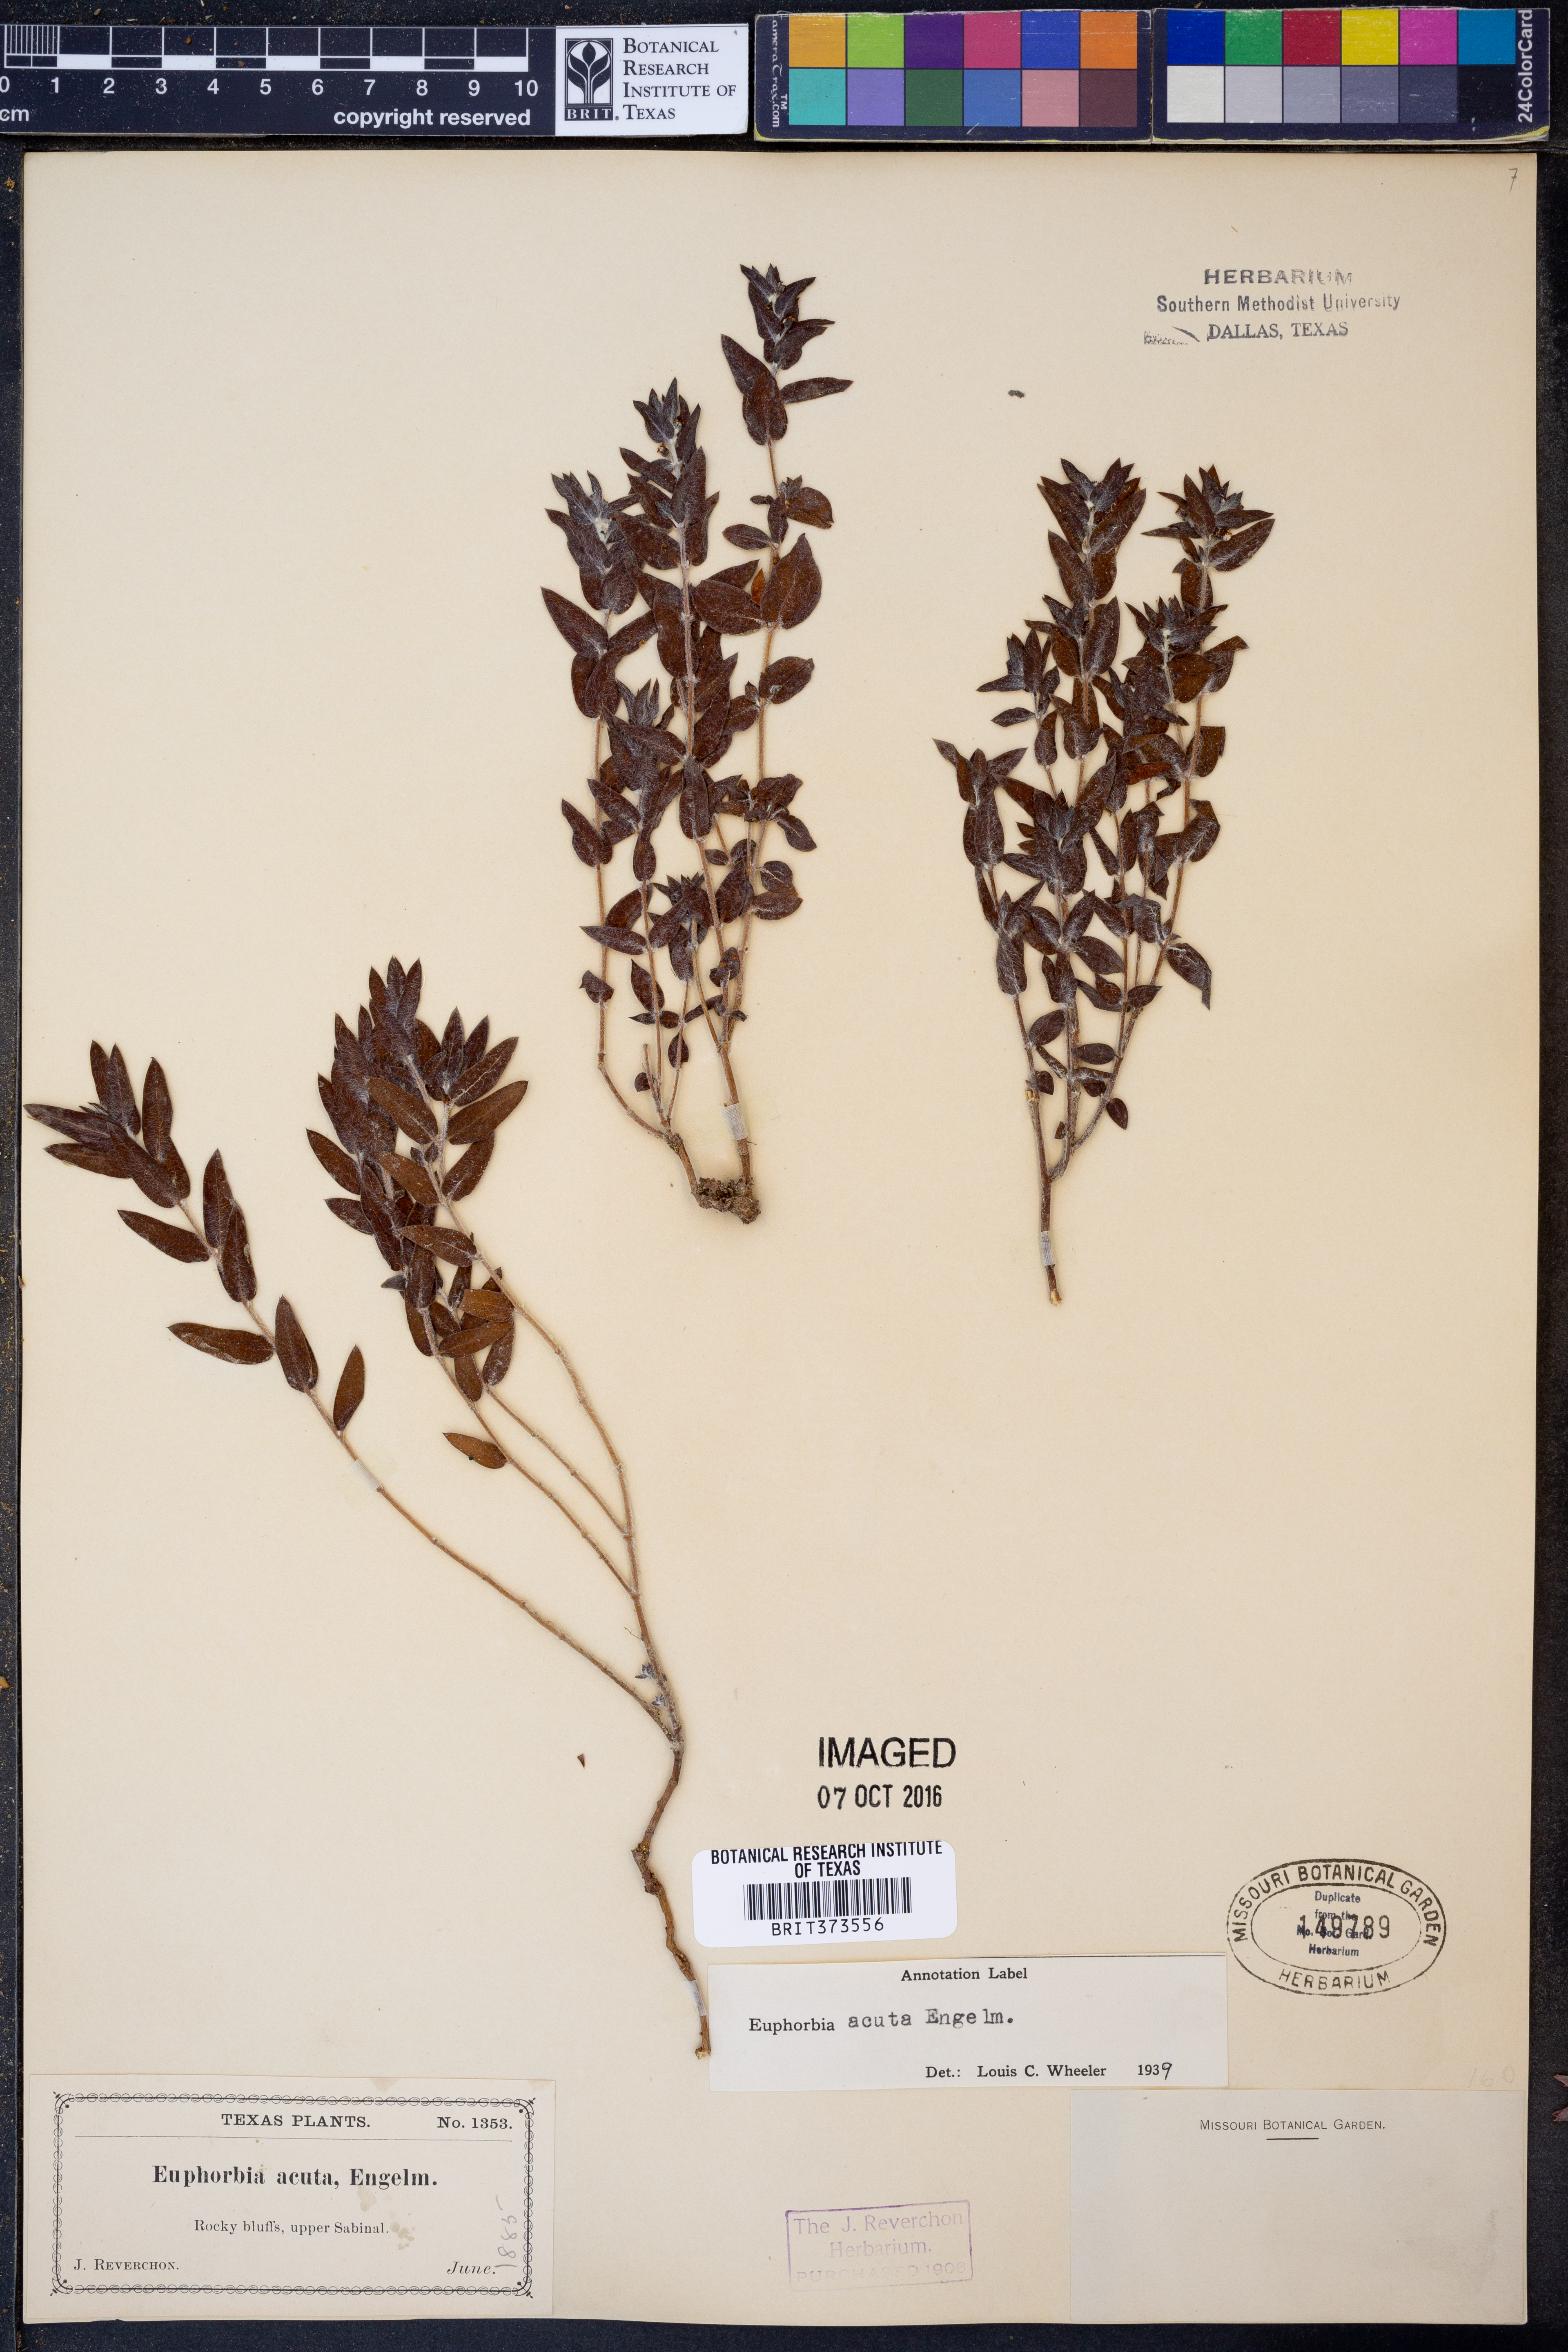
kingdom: Plantae
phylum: Tracheophyta
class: Magnoliopsida
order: Malpighiales
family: Euphorbiaceae
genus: Euphorbia
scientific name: Euphorbia acuta
